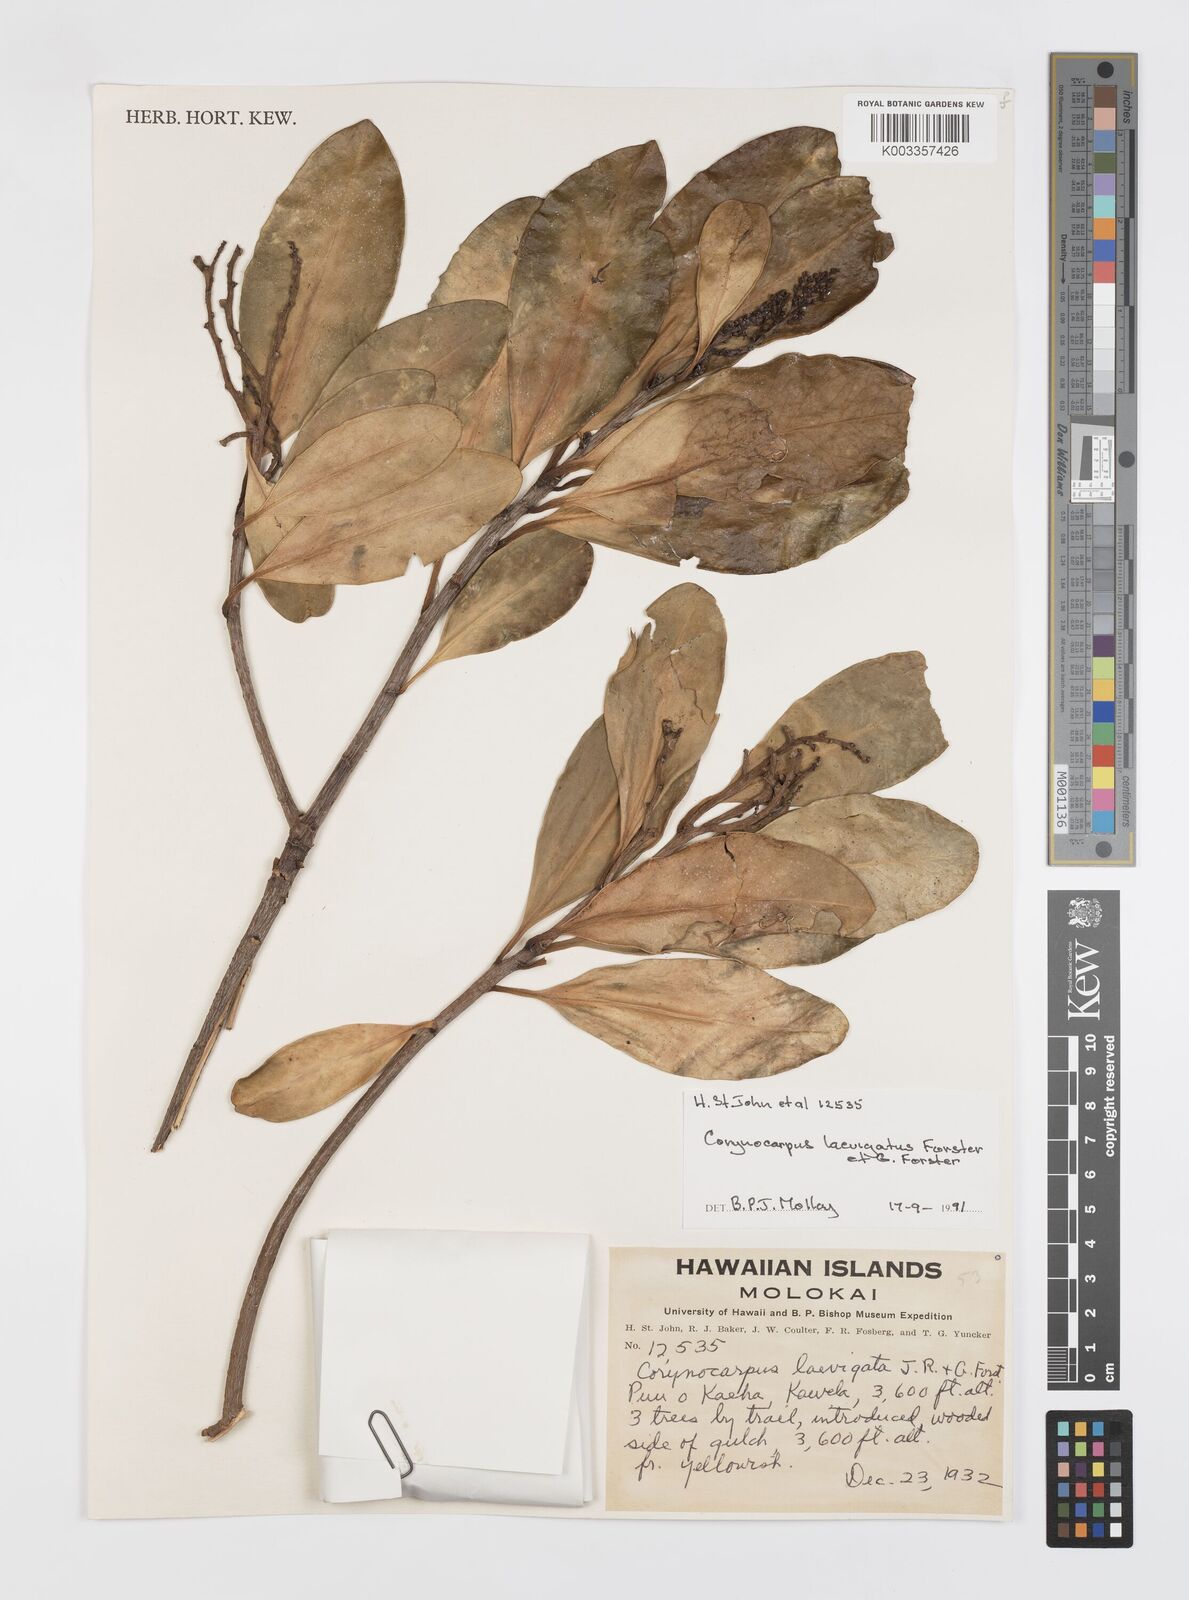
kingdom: Plantae
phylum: Tracheophyta
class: Magnoliopsida
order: Cucurbitales
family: Corynocarpaceae
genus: Corynocarpus
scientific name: Corynocarpus laevigatus
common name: New zealand laurel
